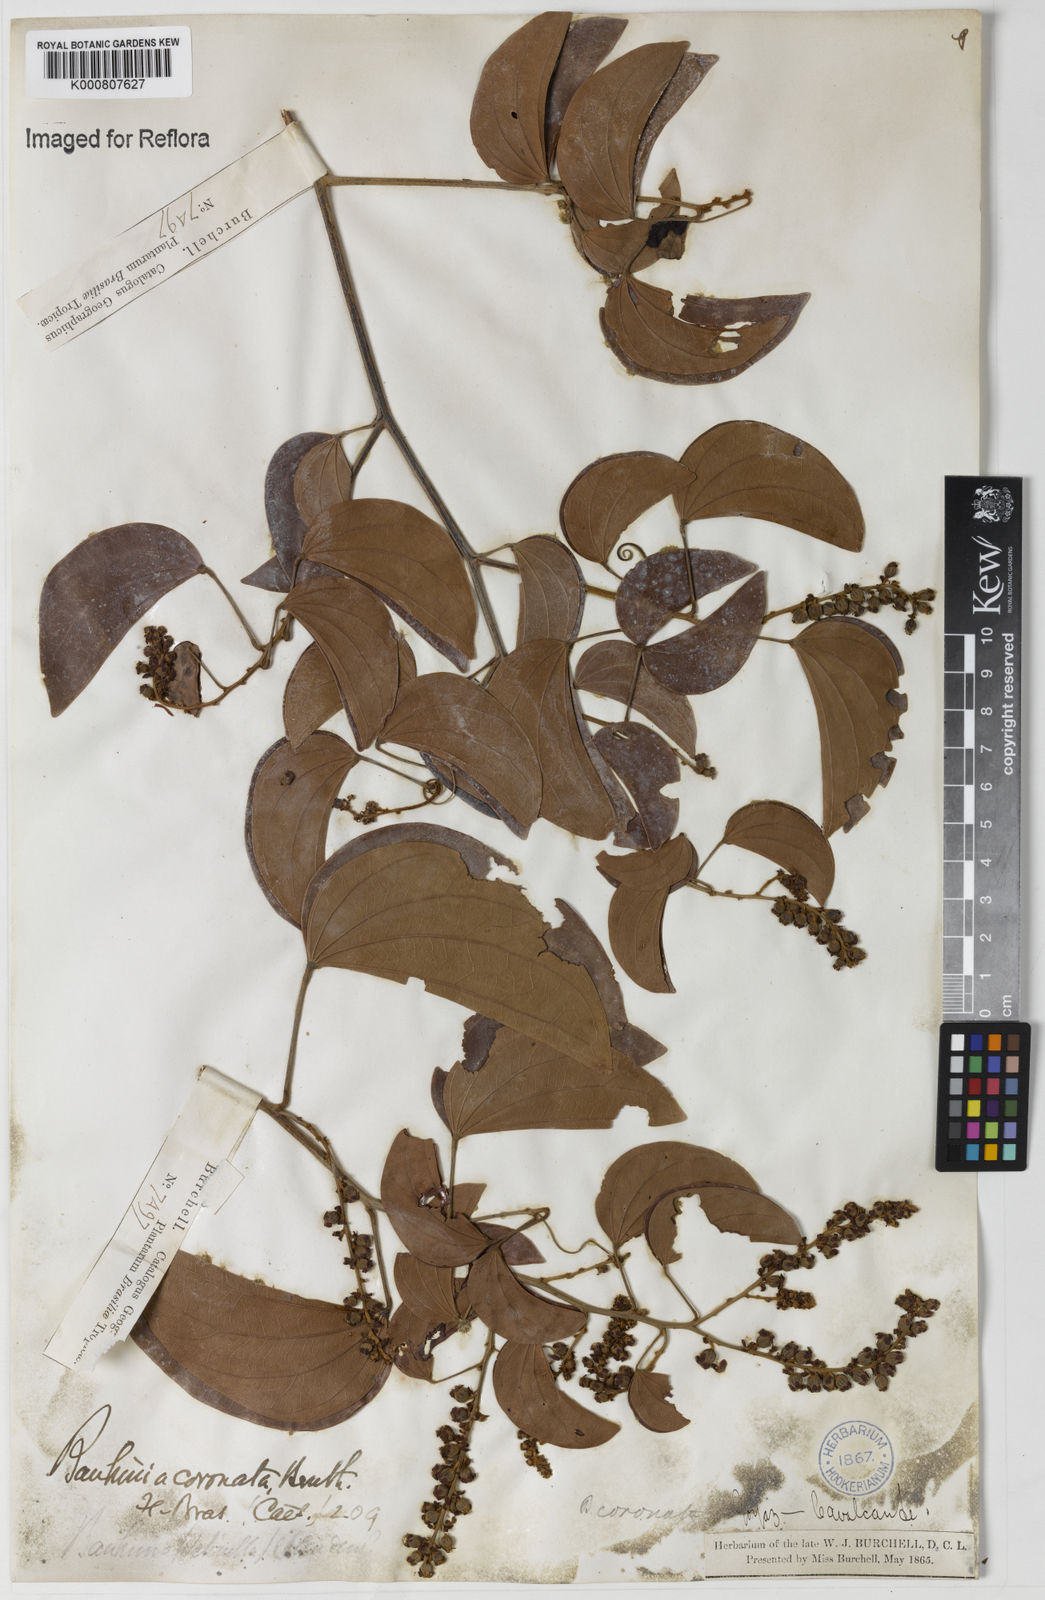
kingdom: Plantae
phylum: Tracheophyta
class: Magnoliopsida
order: Fabales
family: Fabaceae
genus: Schnella
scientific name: Schnella outimouta
